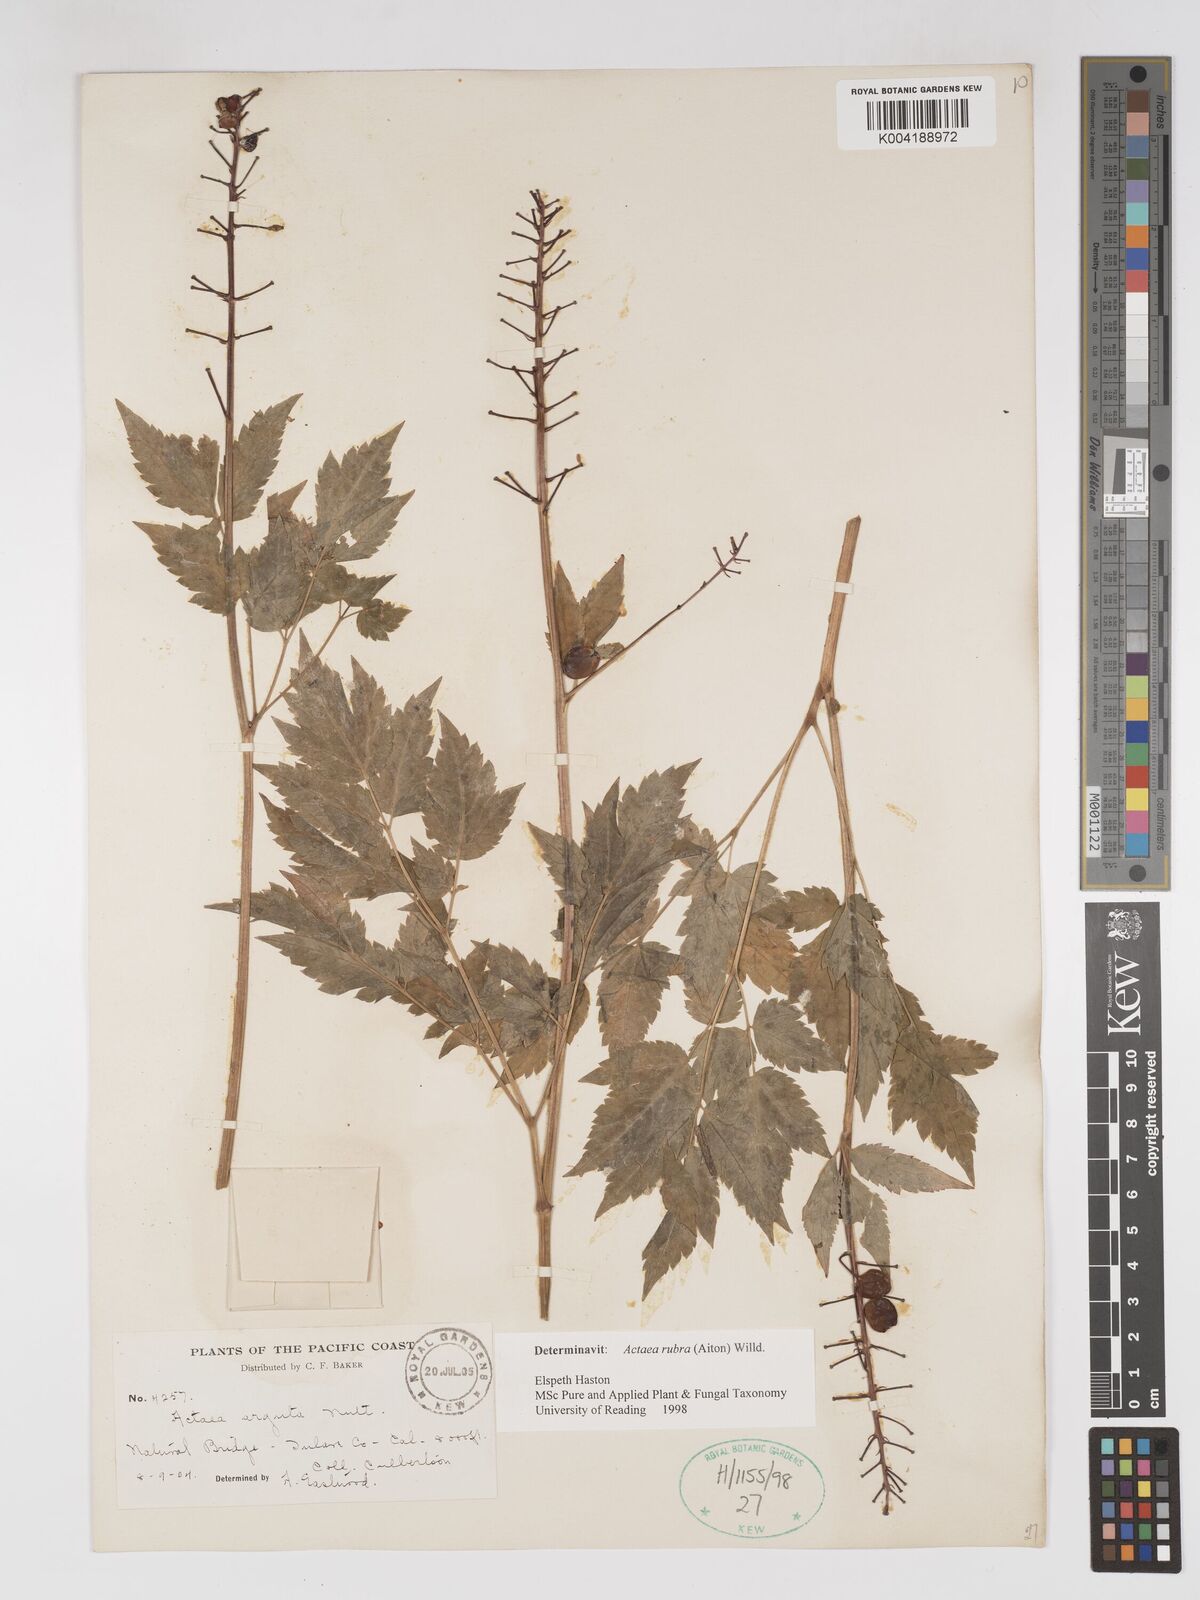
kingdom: Plantae
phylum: Tracheophyta
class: Magnoliopsida
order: Ranunculales
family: Ranunculaceae
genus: Actaea
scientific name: Actaea rubra
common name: Red baneberry
